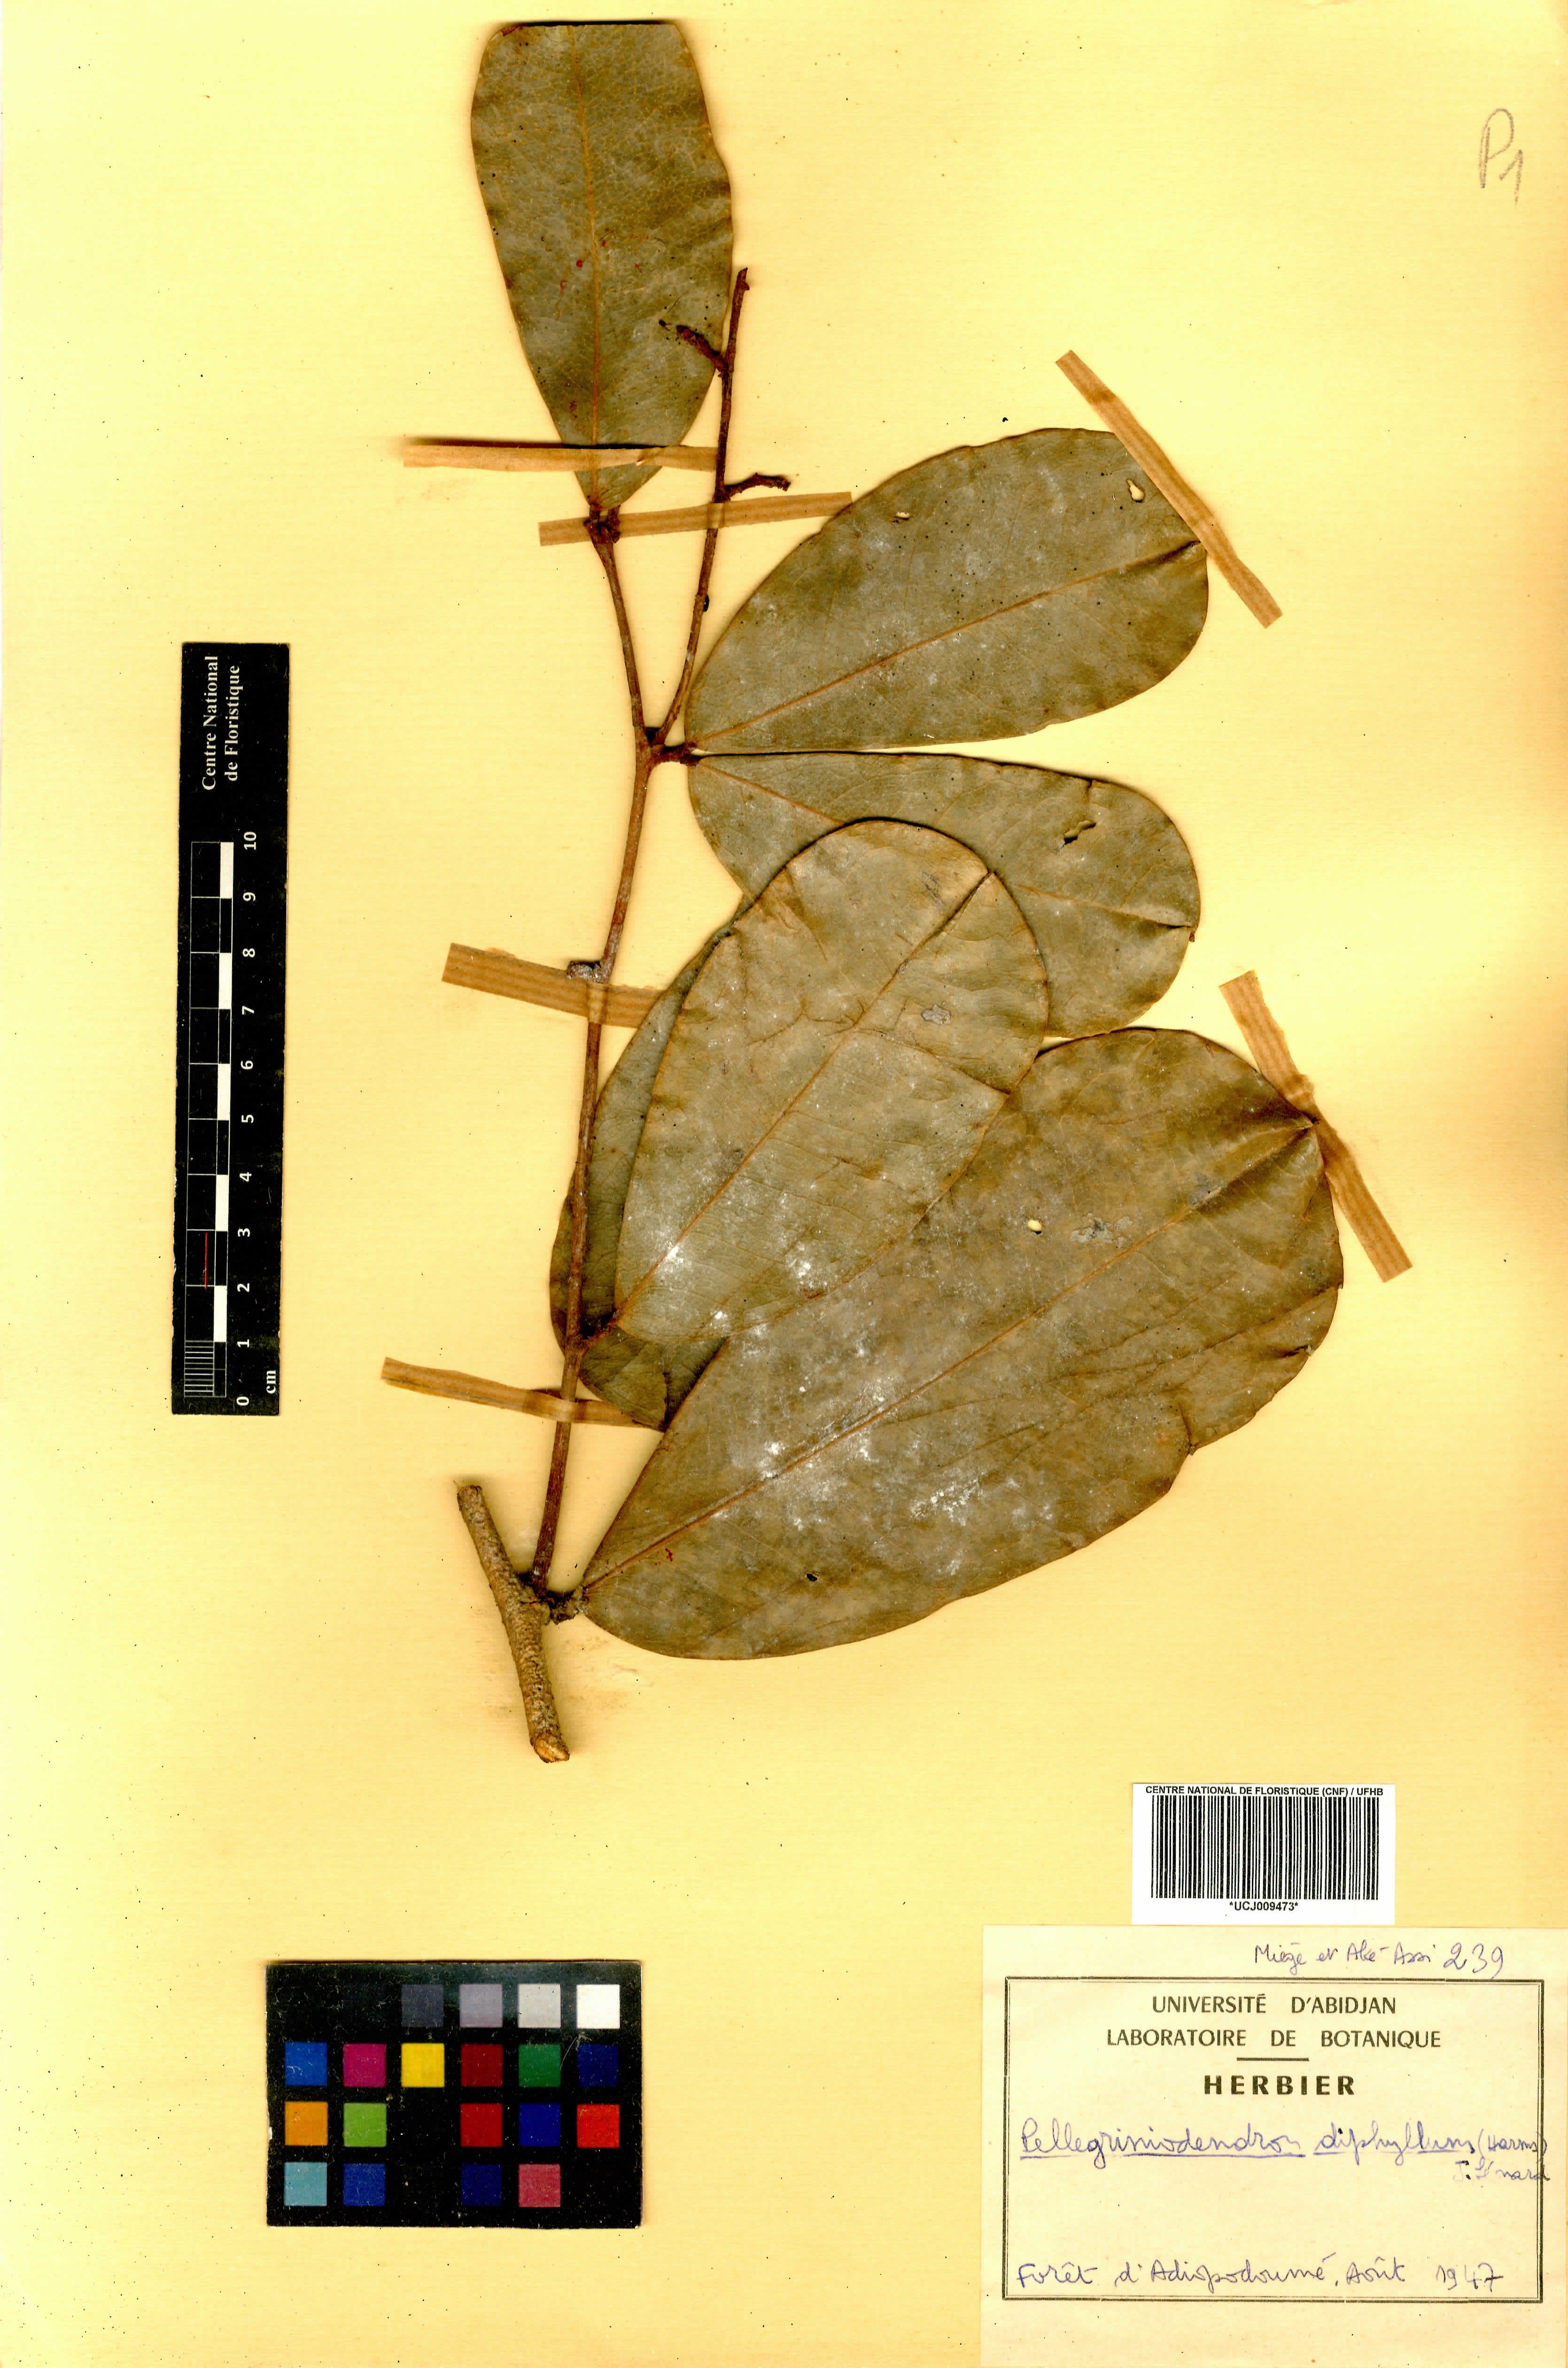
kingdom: Plantae
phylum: Tracheophyta
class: Magnoliopsida
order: Fabales
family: Fabaceae
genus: Gilbertiodendron
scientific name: Gilbertiodendron diphyllum
